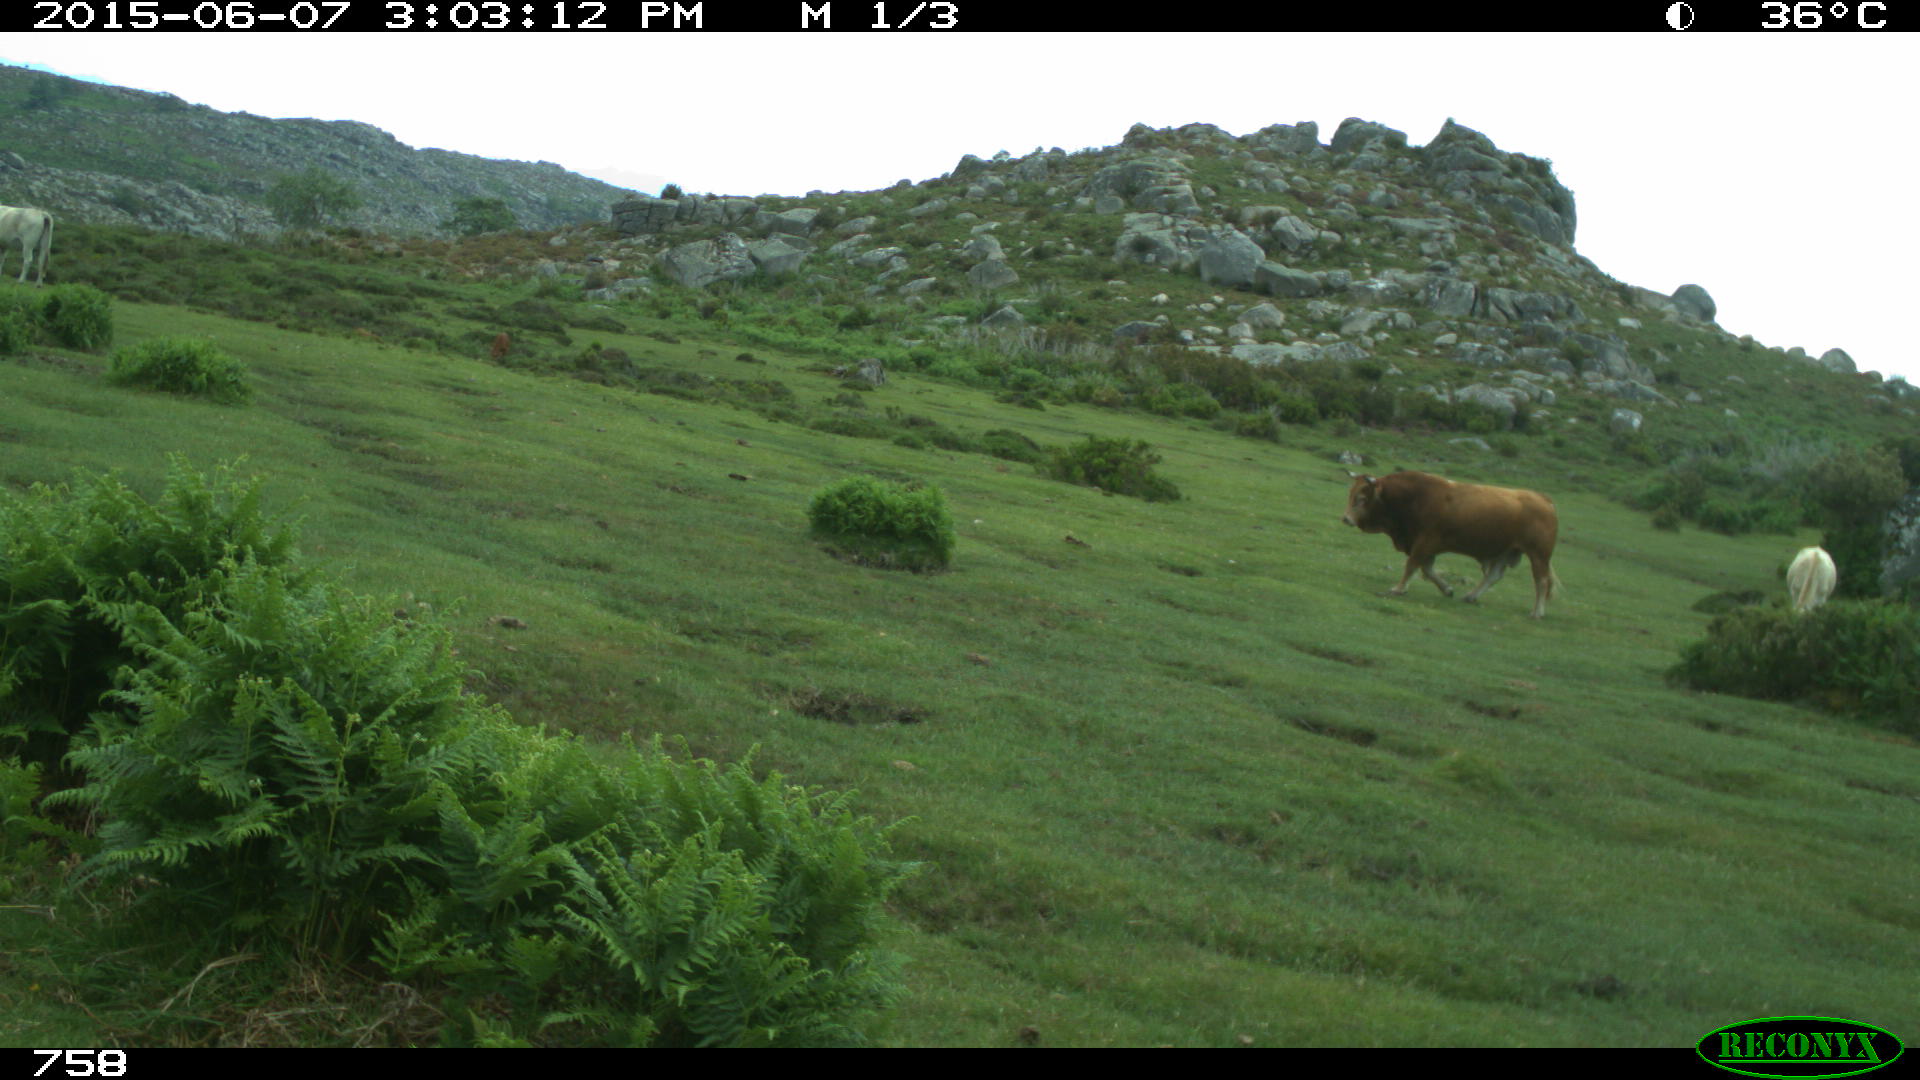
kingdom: Animalia
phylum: Chordata
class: Mammalia
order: Artiodactyla
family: Bovidae
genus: Bos
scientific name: Bos taurus
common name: Domesticated cattle
